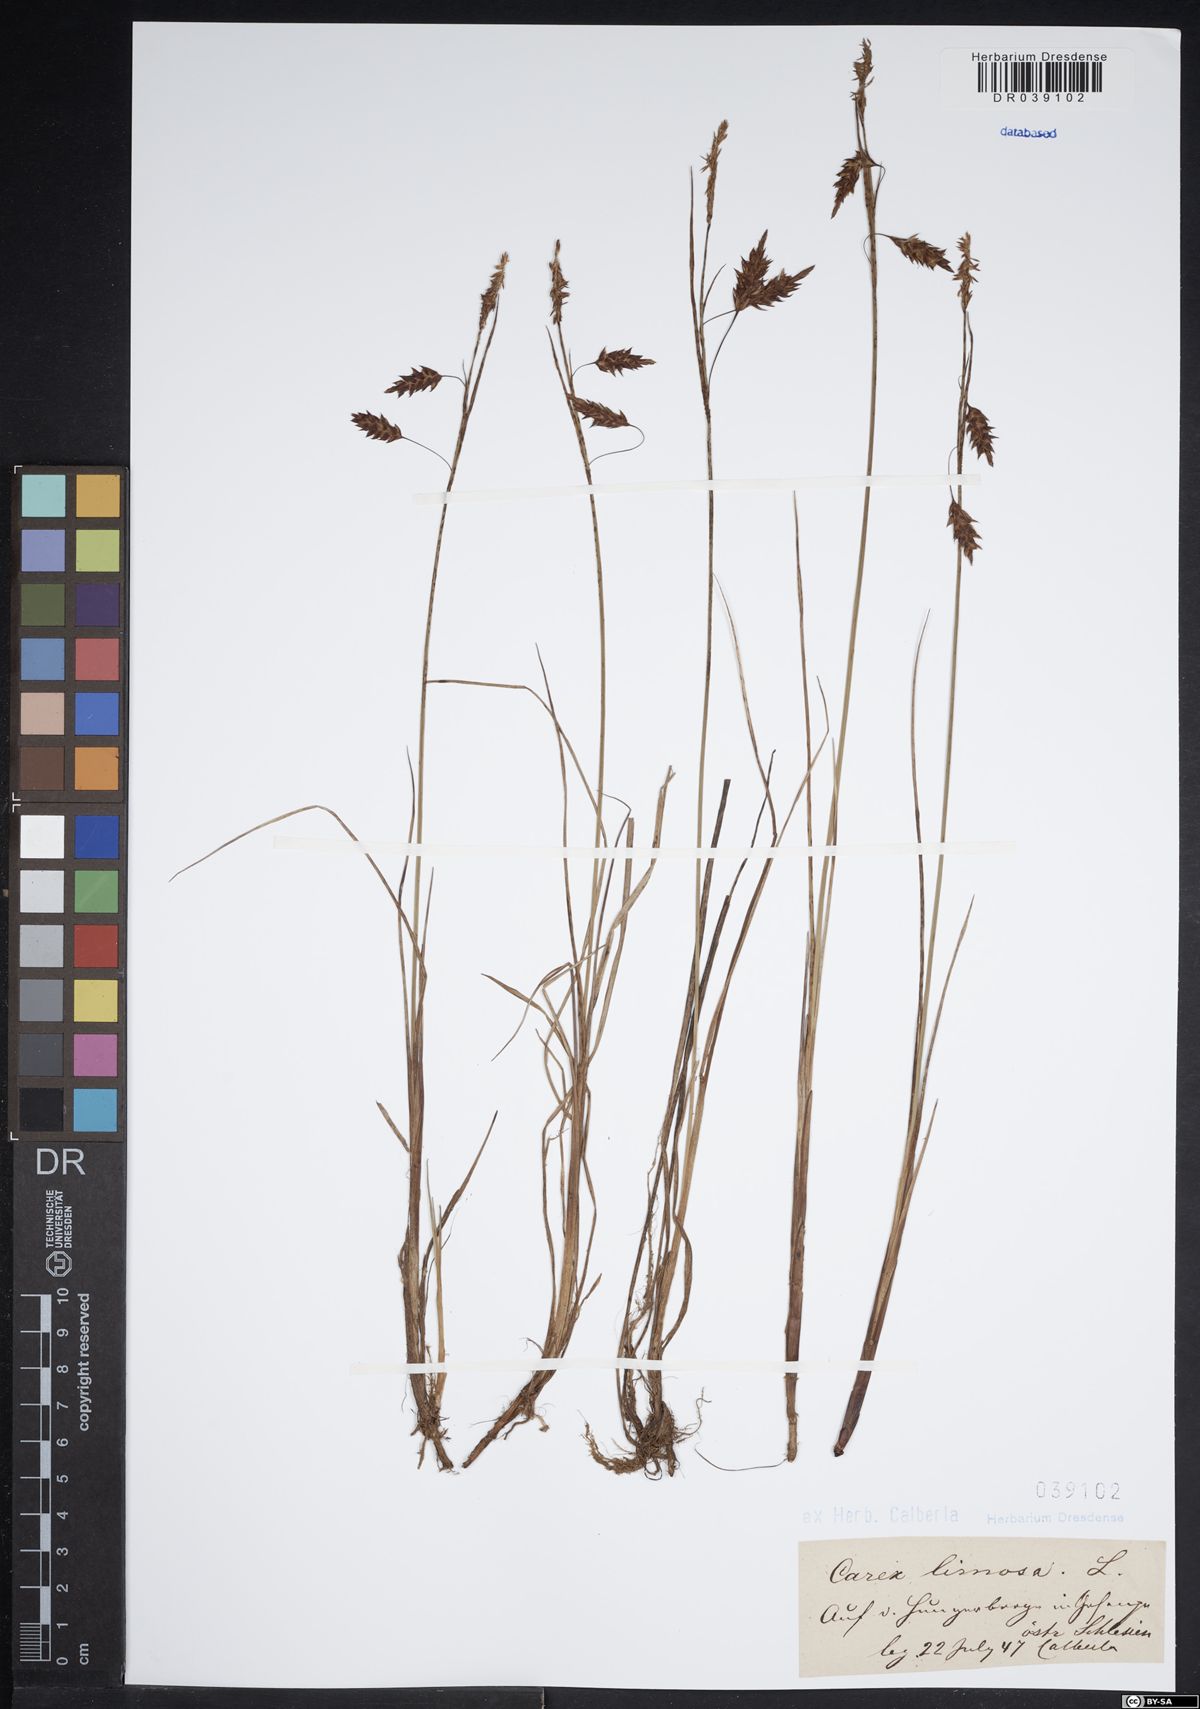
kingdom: Plantae
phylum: Tracheophyta
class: Liliopsida
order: Poales
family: Cyperaceae
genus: Carex
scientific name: Carex limosa
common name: Bog sedge
